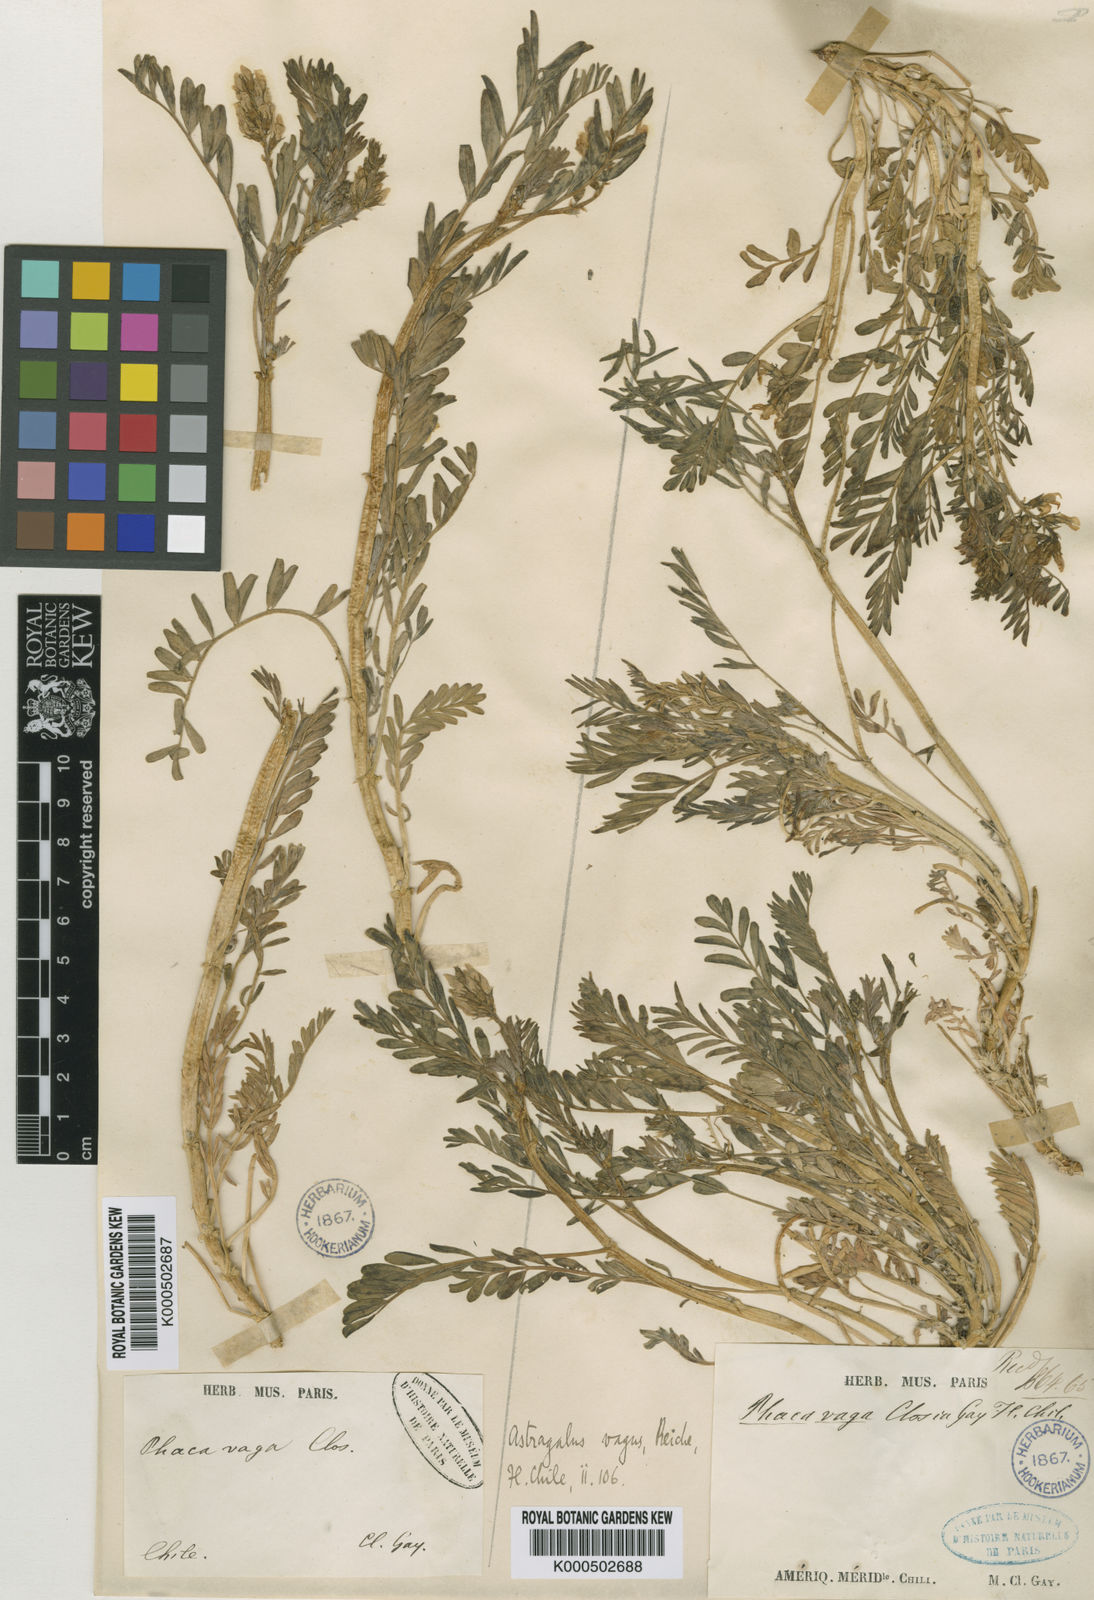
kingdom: Plantae
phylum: Tracheophyta
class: Magnoliopsida
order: Fabales
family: Fabaceae
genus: Astragalus
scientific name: Astragalus vagus
